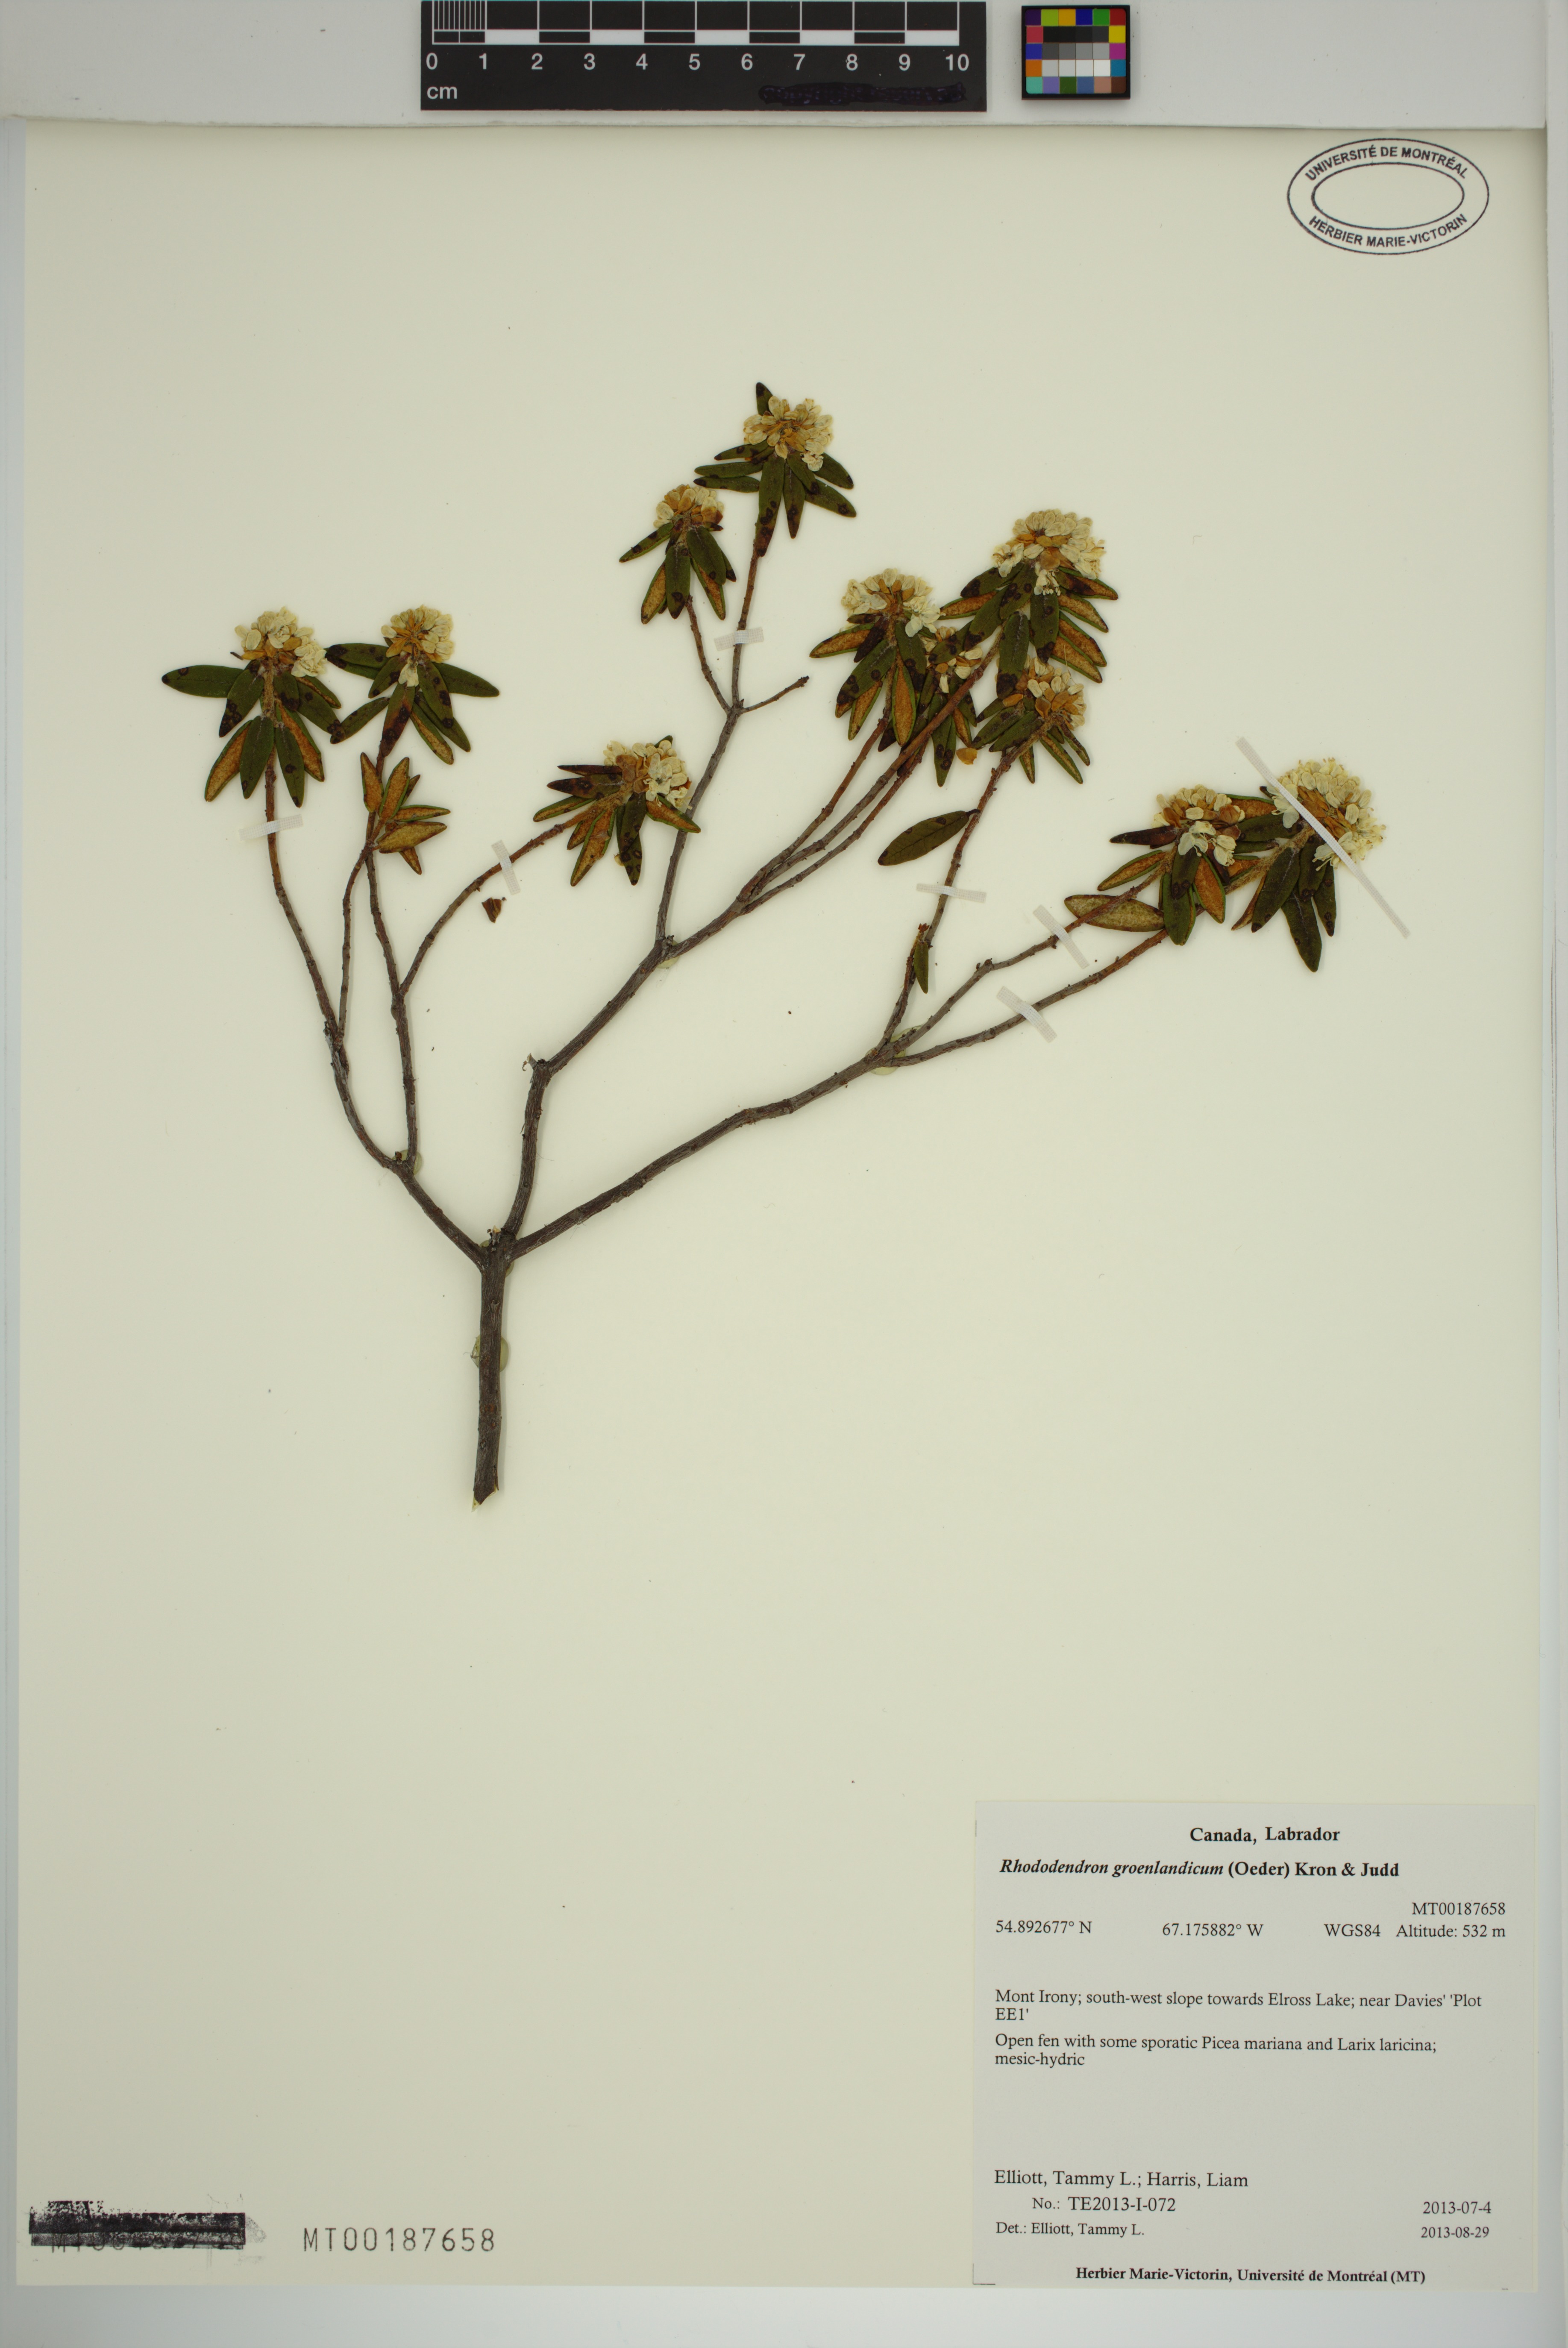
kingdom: Plantae
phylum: Tracheophyta
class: Magnoliopsida
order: Ericales
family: Ericaceae
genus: Rhododendron
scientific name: Rhododendron groenlandicum
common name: Bog labrador tea
